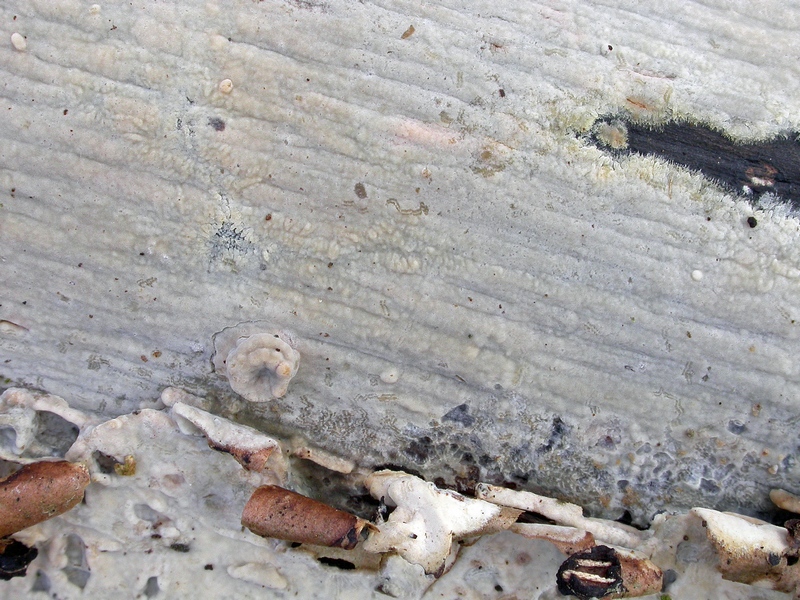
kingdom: Fungi
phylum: Basidiomycota
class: Agaricomycetes
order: Agaricales
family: Radulomycetaceae
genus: Radulomyces
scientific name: Radulomyces confluens
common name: glat naftalinskind
